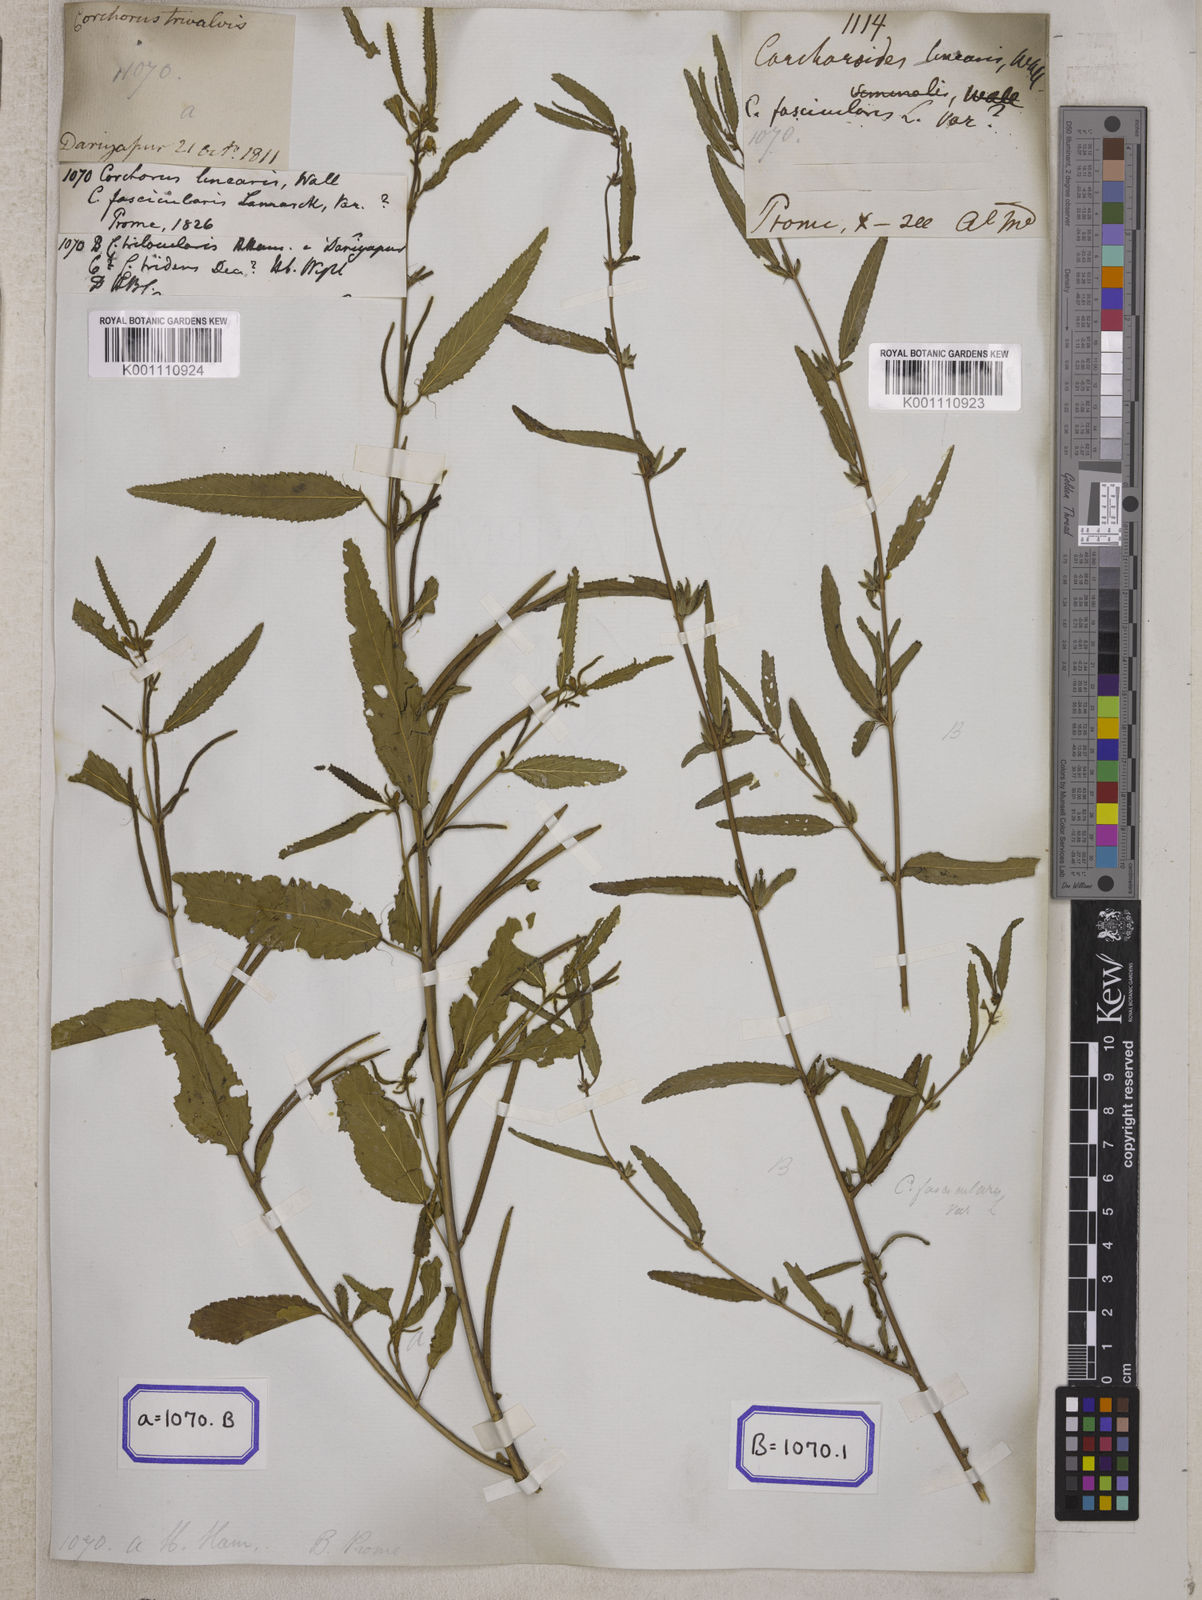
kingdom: Plantae
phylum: Tracheophyta
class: Magnoliopsida
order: Malvales
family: Malvaceae
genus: Corchorus
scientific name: Corchorus
